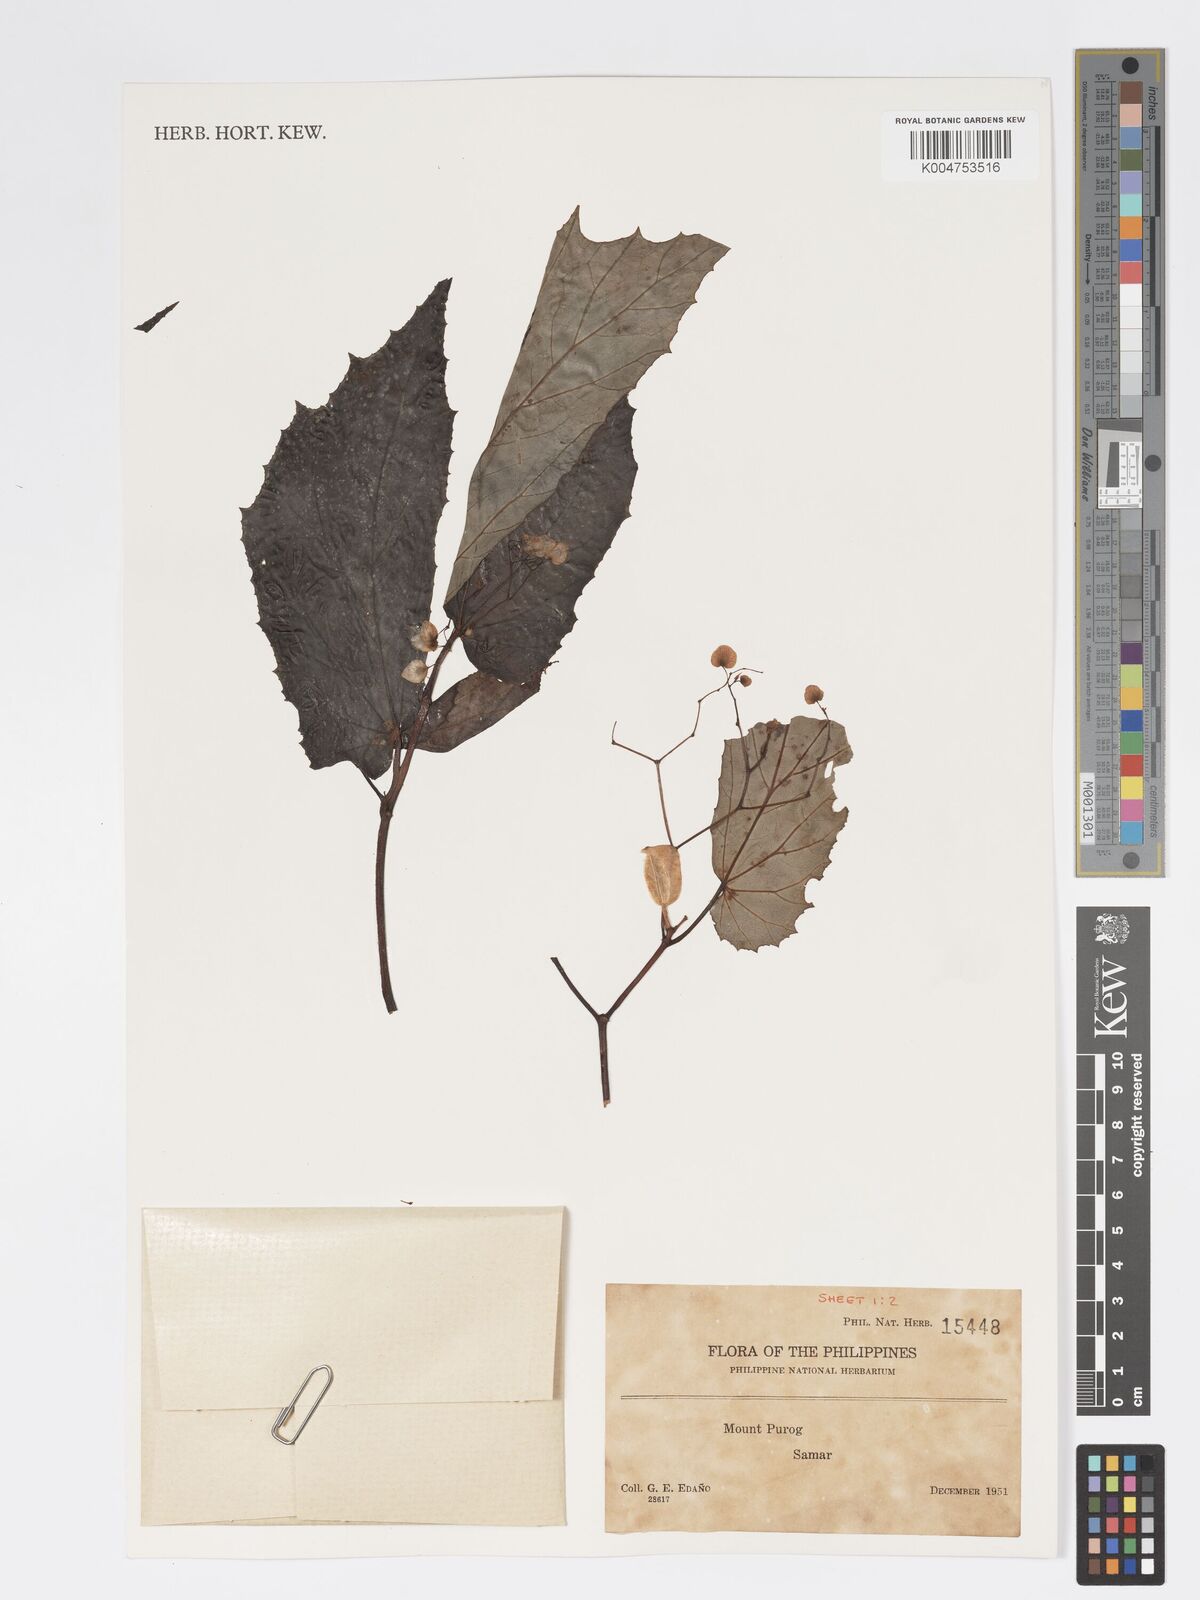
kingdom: Plantae
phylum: Tracheophyta
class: Magnoliopsida
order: Cucurbitales
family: Begoniaceae
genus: Begonia
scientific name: Begonia
